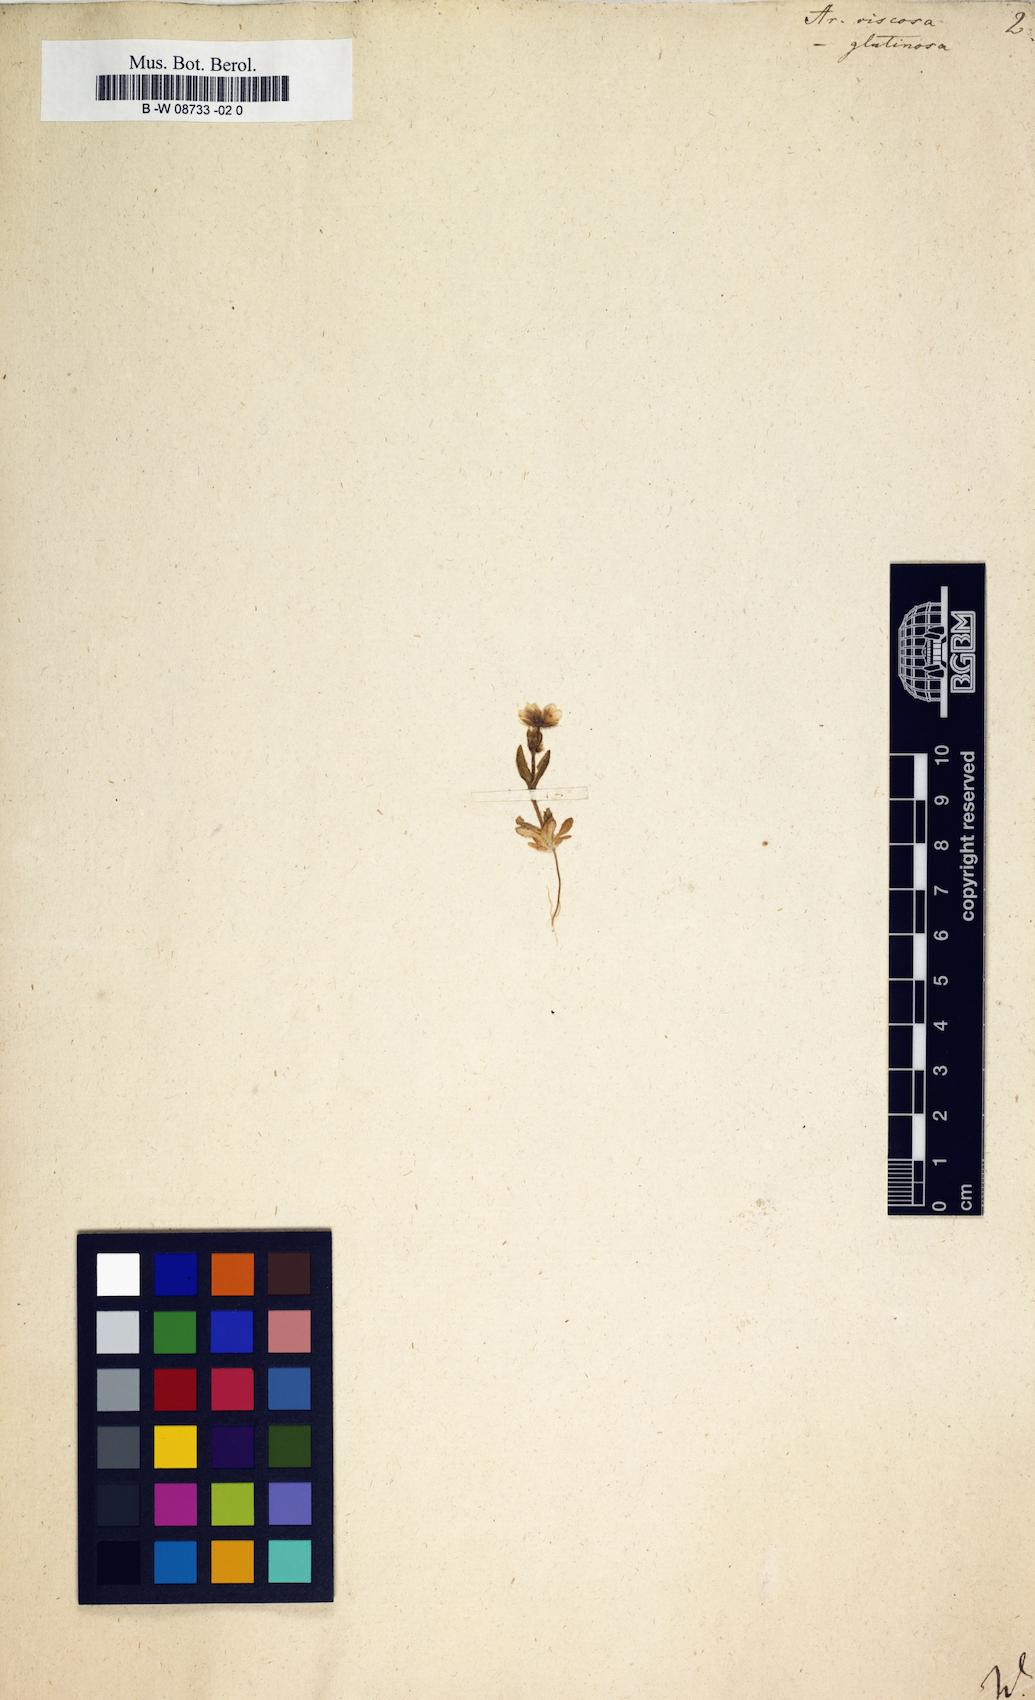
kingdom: Plantae
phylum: Tracheophyta
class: Magnoliopsida
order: Caryophyllales
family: Caryophyllaceae
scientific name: Caryophyllaceae
